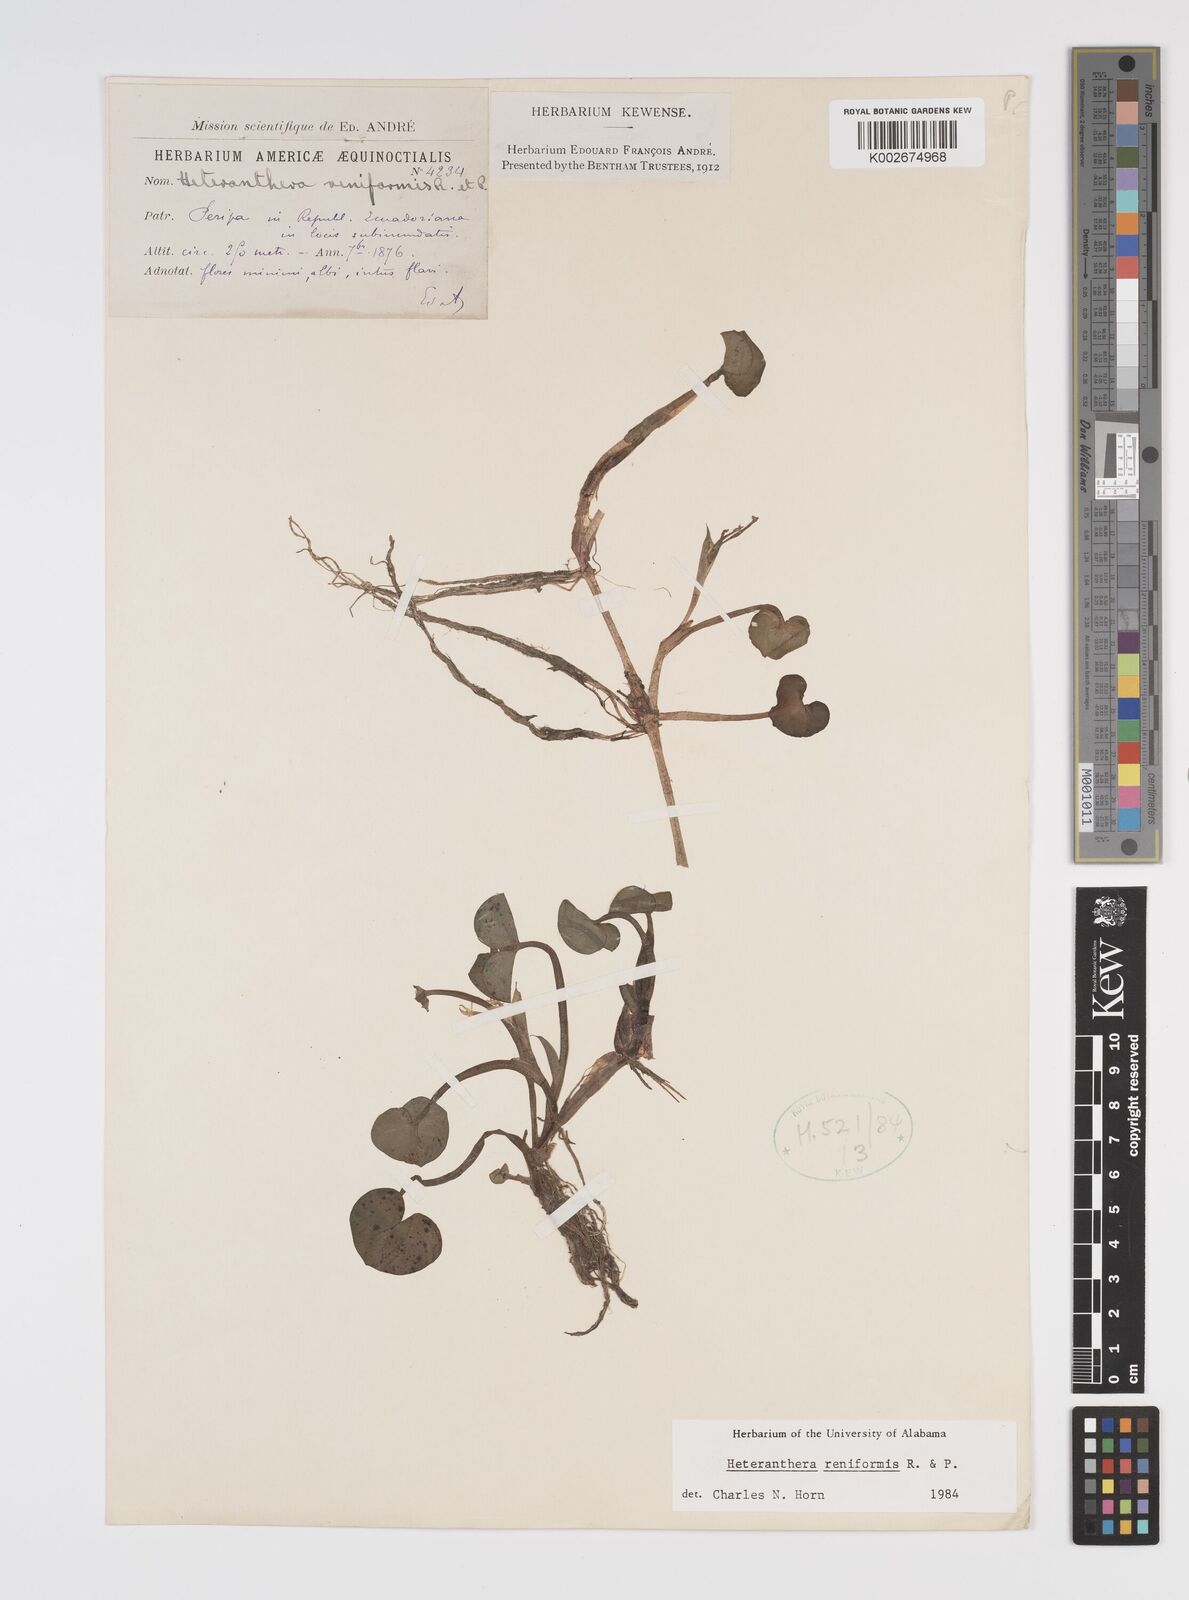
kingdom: Plantae
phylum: Tracheophyta
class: Liliopsida
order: Commelinales
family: Pontederiaceae
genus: Heteranthera
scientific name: Heteranthera reniformis
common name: Kidneyleaf mudplantain
